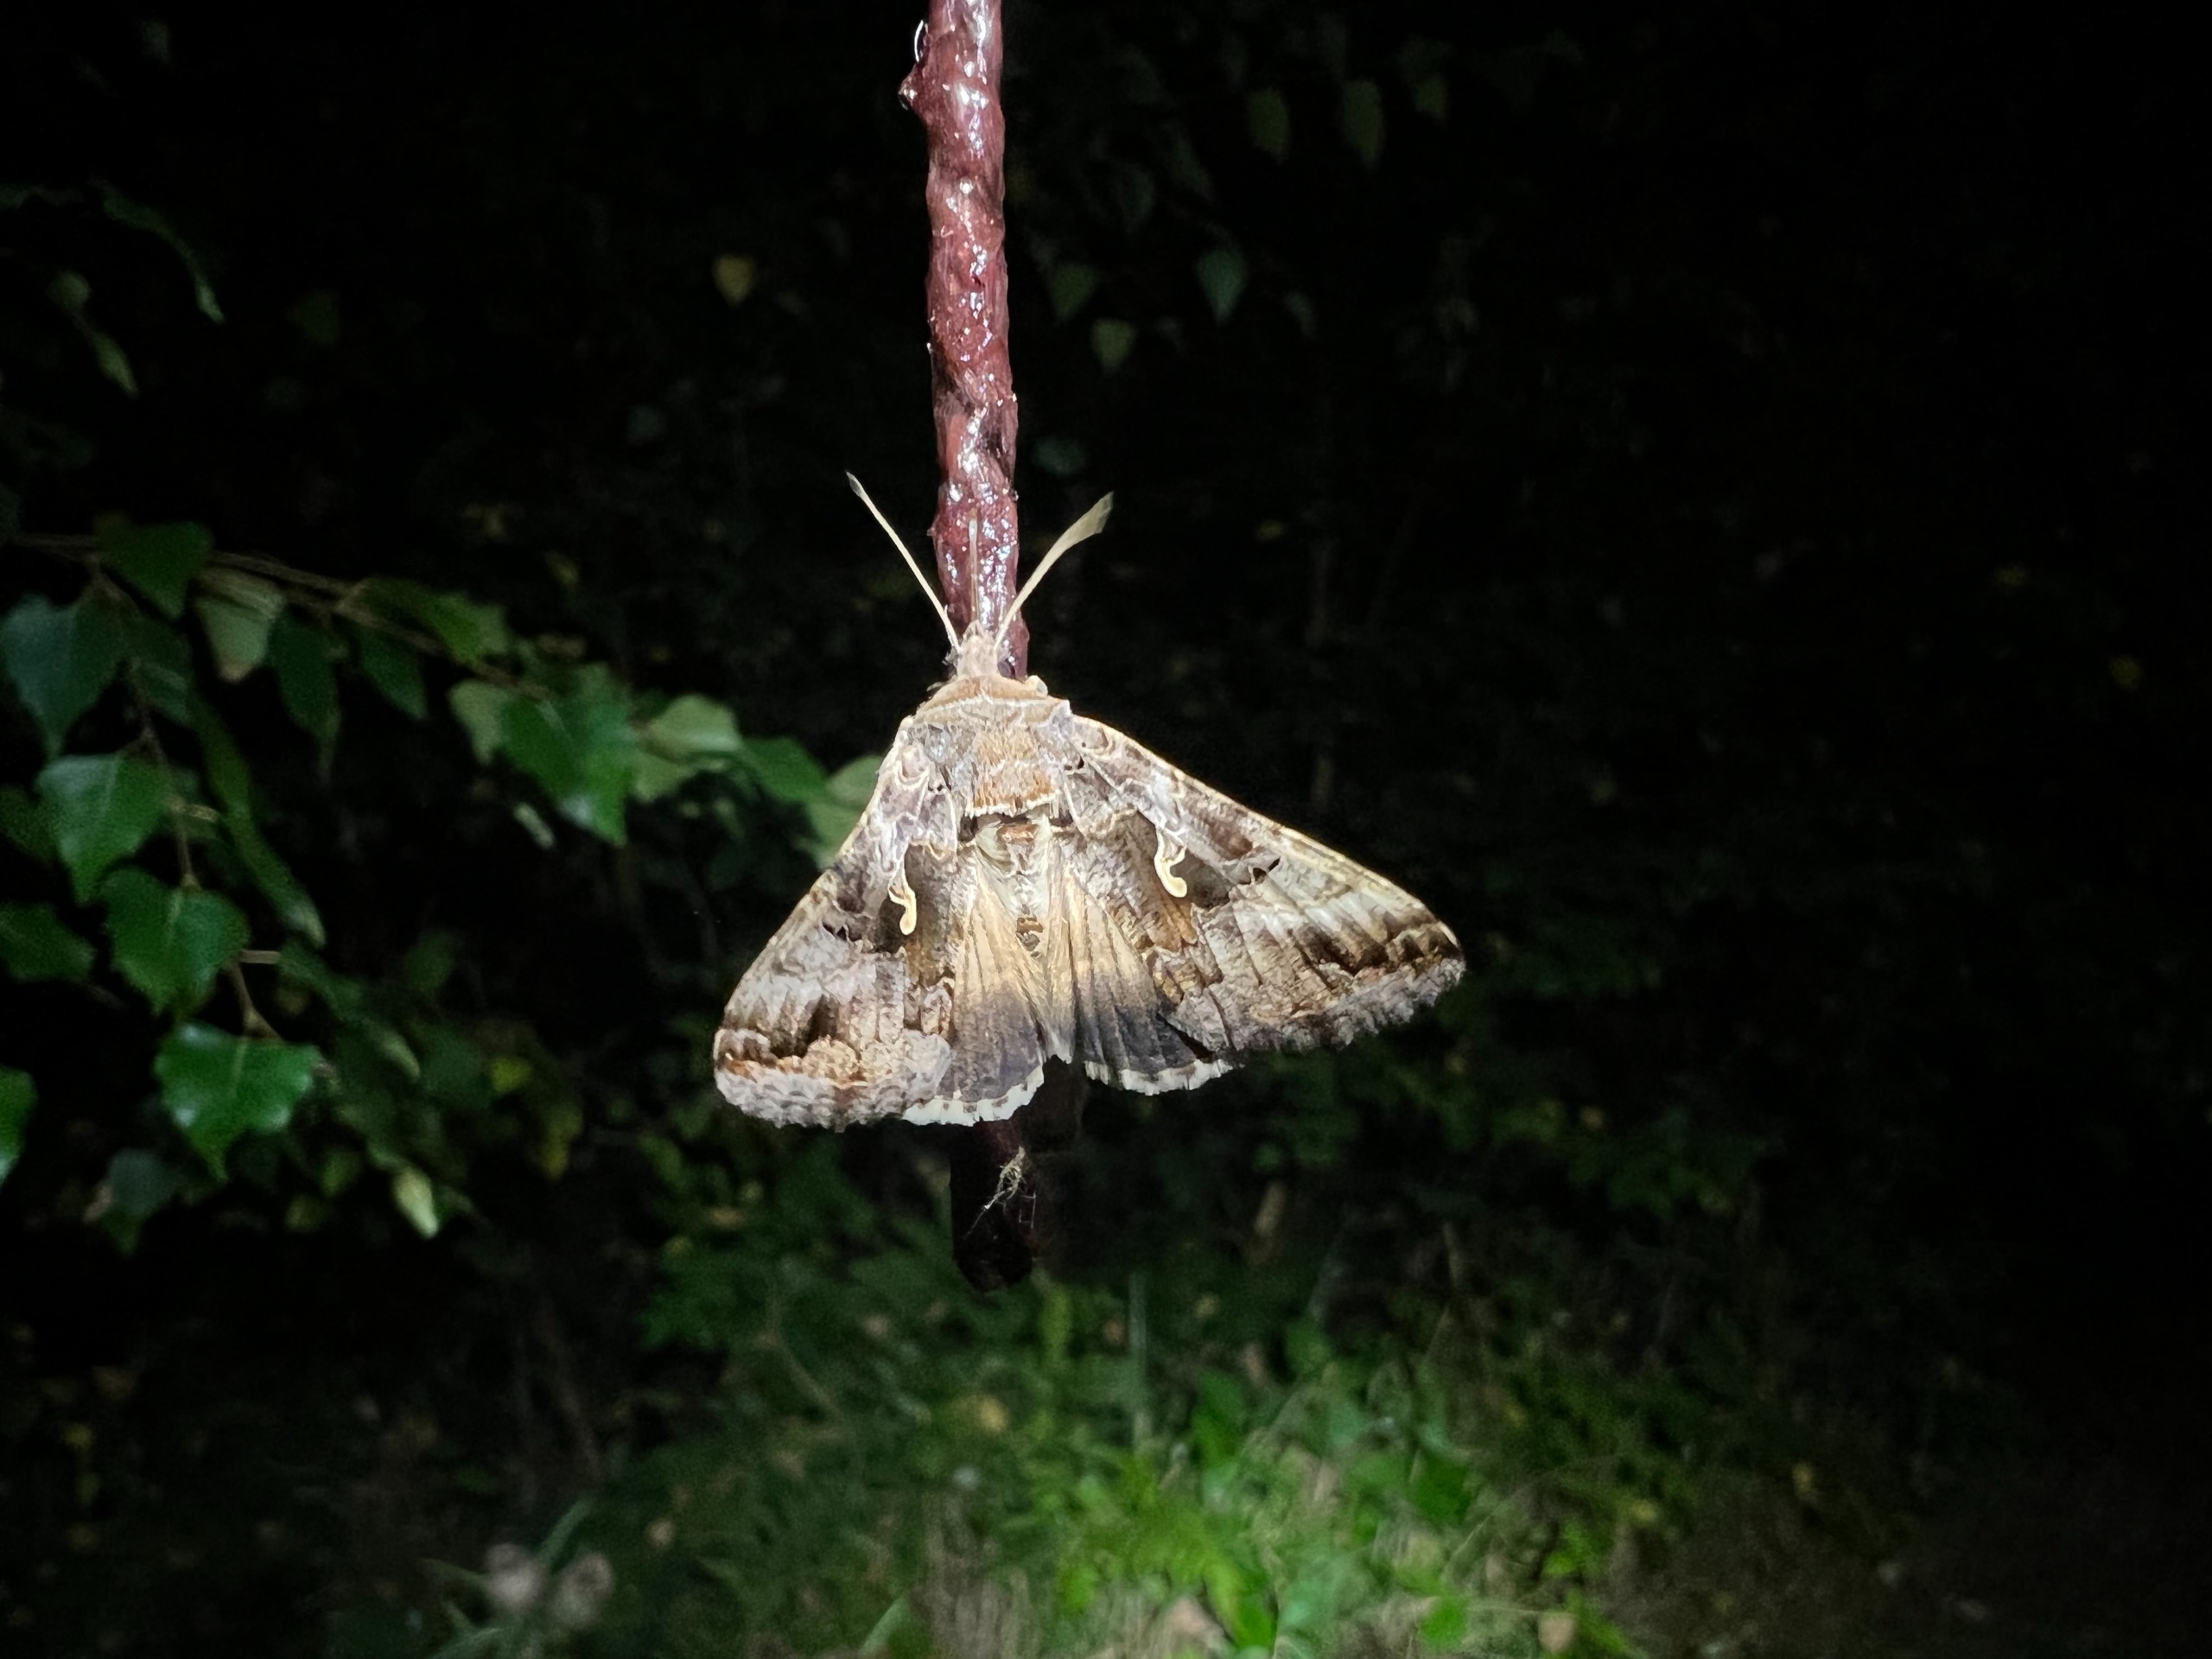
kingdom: Animalia
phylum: Arthropoda
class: Insecta
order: Lepidoptera
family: Noctuidae
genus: Autographa
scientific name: Autographa gamma
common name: Gammaugle
